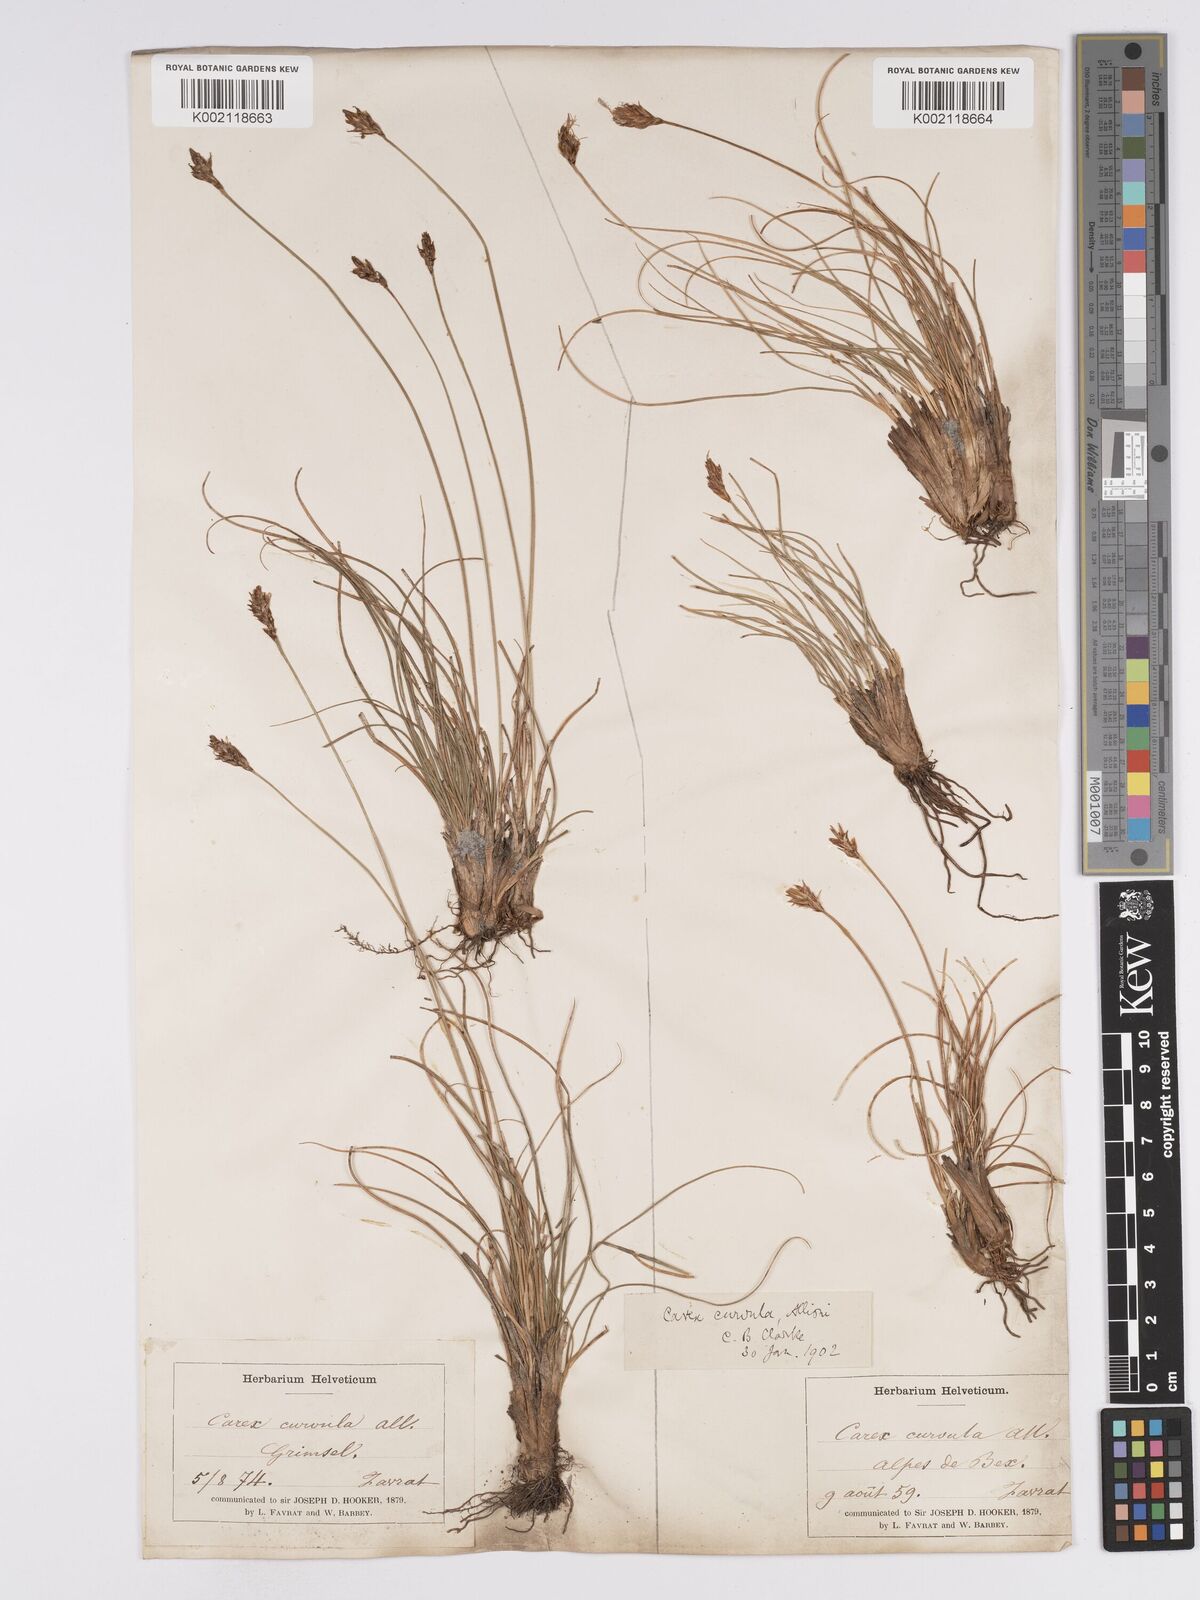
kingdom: Plantae
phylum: Tracheophyta
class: Liliopsida
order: Poales
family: Cyperaceae
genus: Carex
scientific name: Carex curvula
